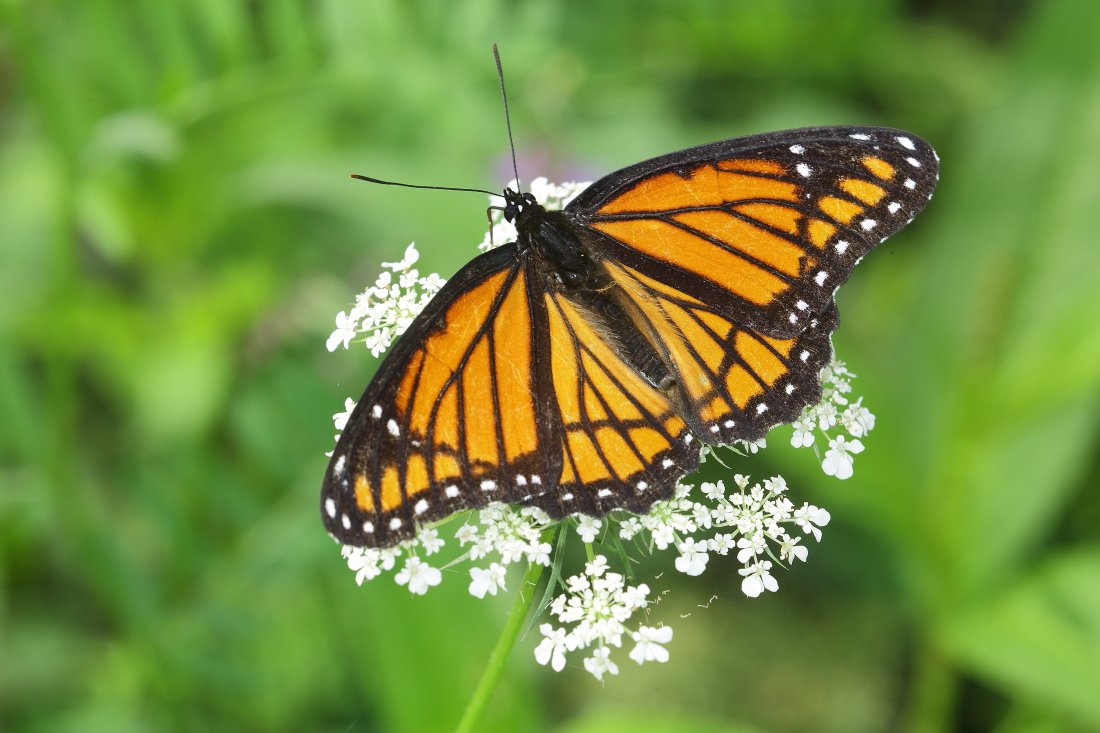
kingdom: Animalia
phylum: Arthropoda
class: Insecta
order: Lepidoptera
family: Nymphalidae
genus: Limenitis
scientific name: Limenitis archippus
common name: Viceroy
